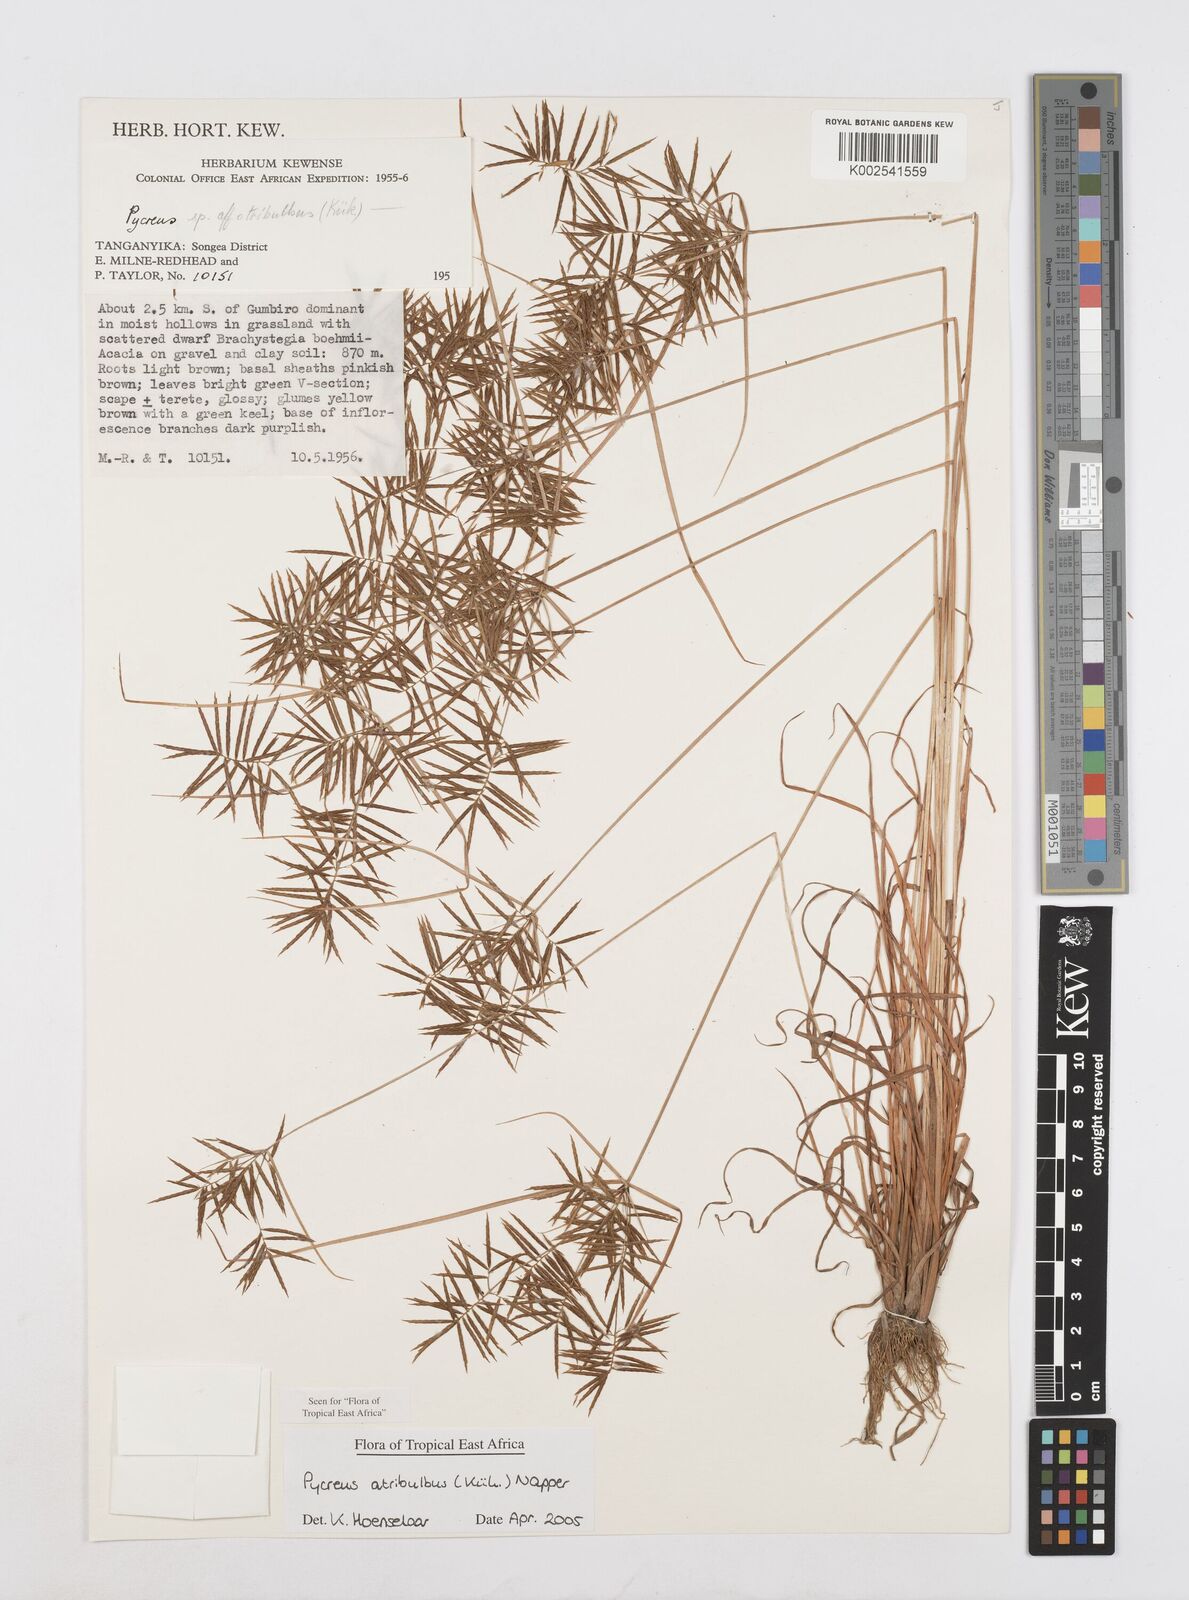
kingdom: Plantae
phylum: Tracheophyta
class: Liliopsida
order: Poales
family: Cyperaceae
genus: Cyperus
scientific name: Cyperus intactus
